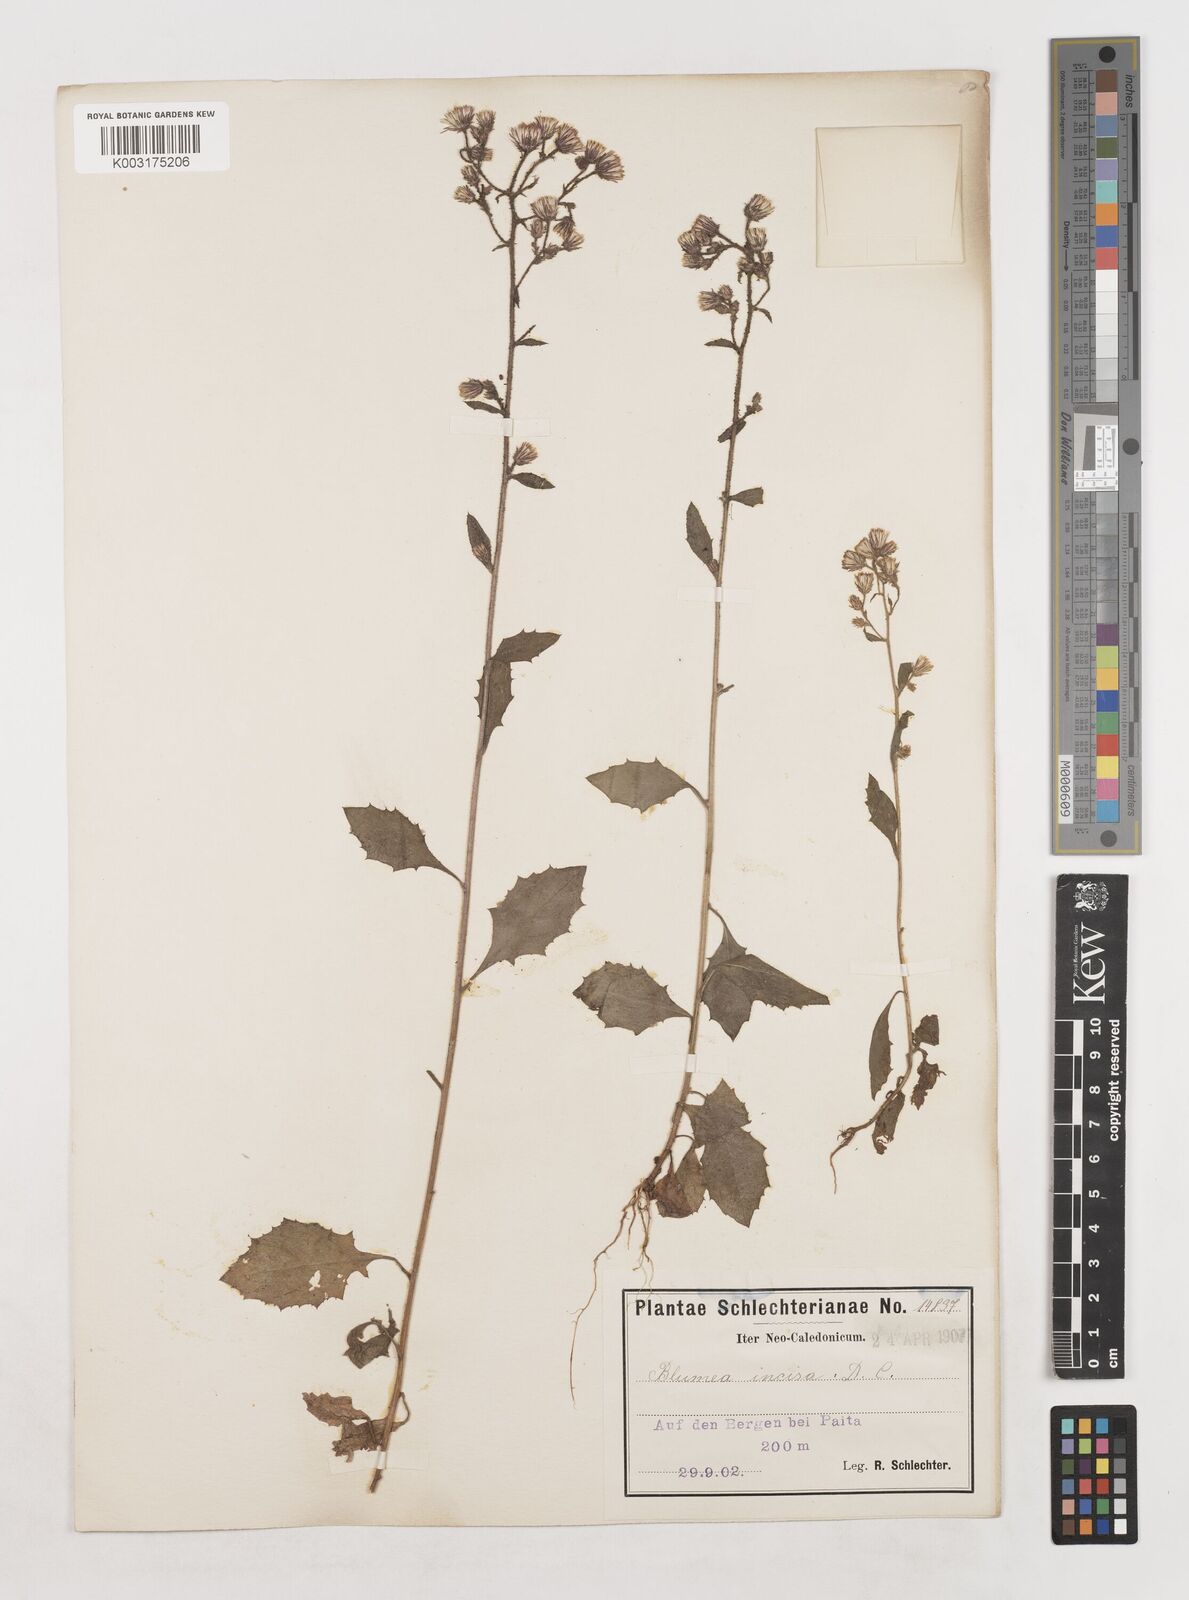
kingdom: Plantae
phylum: Tracheophyta
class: Magnoliopsida
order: Asterales
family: Asteraceae
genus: Blumea
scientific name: Blumea incisa
